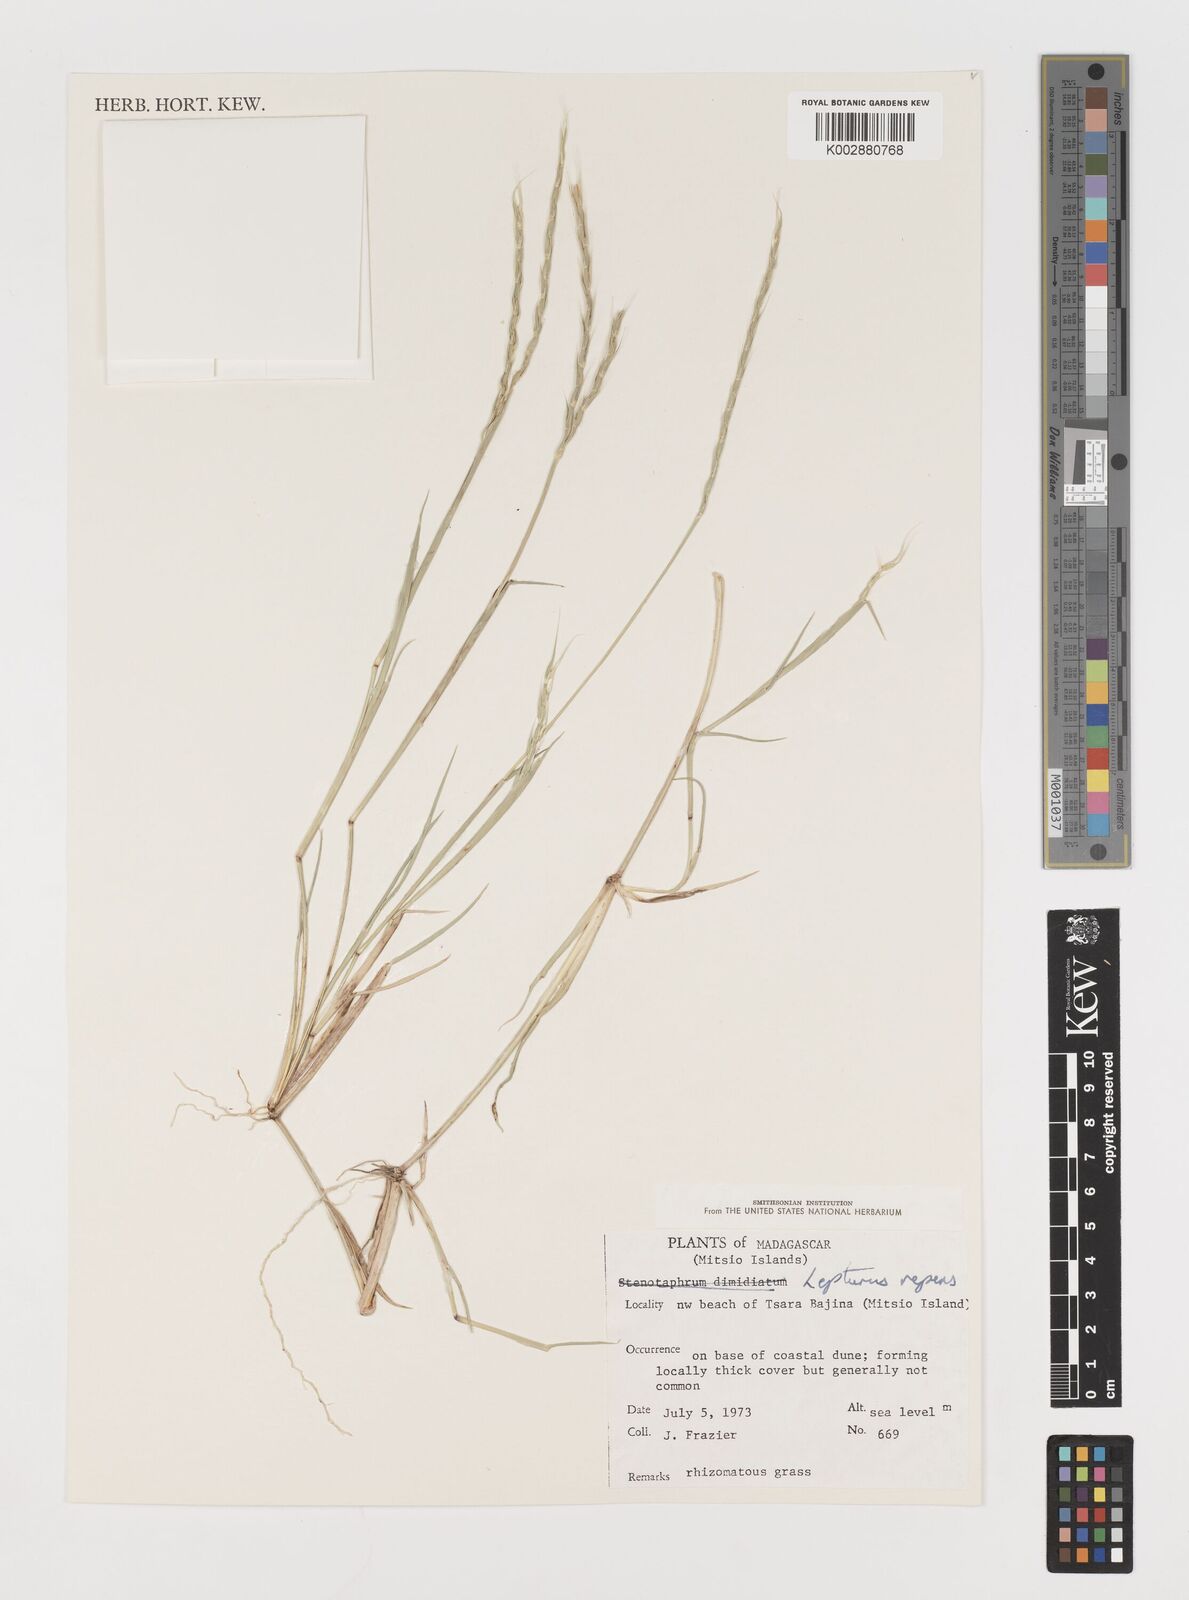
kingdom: Plantae
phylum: Tracheophyta
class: Liliopsida
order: Poales
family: Poaceae
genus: Lepturus
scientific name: Lepturus repens
